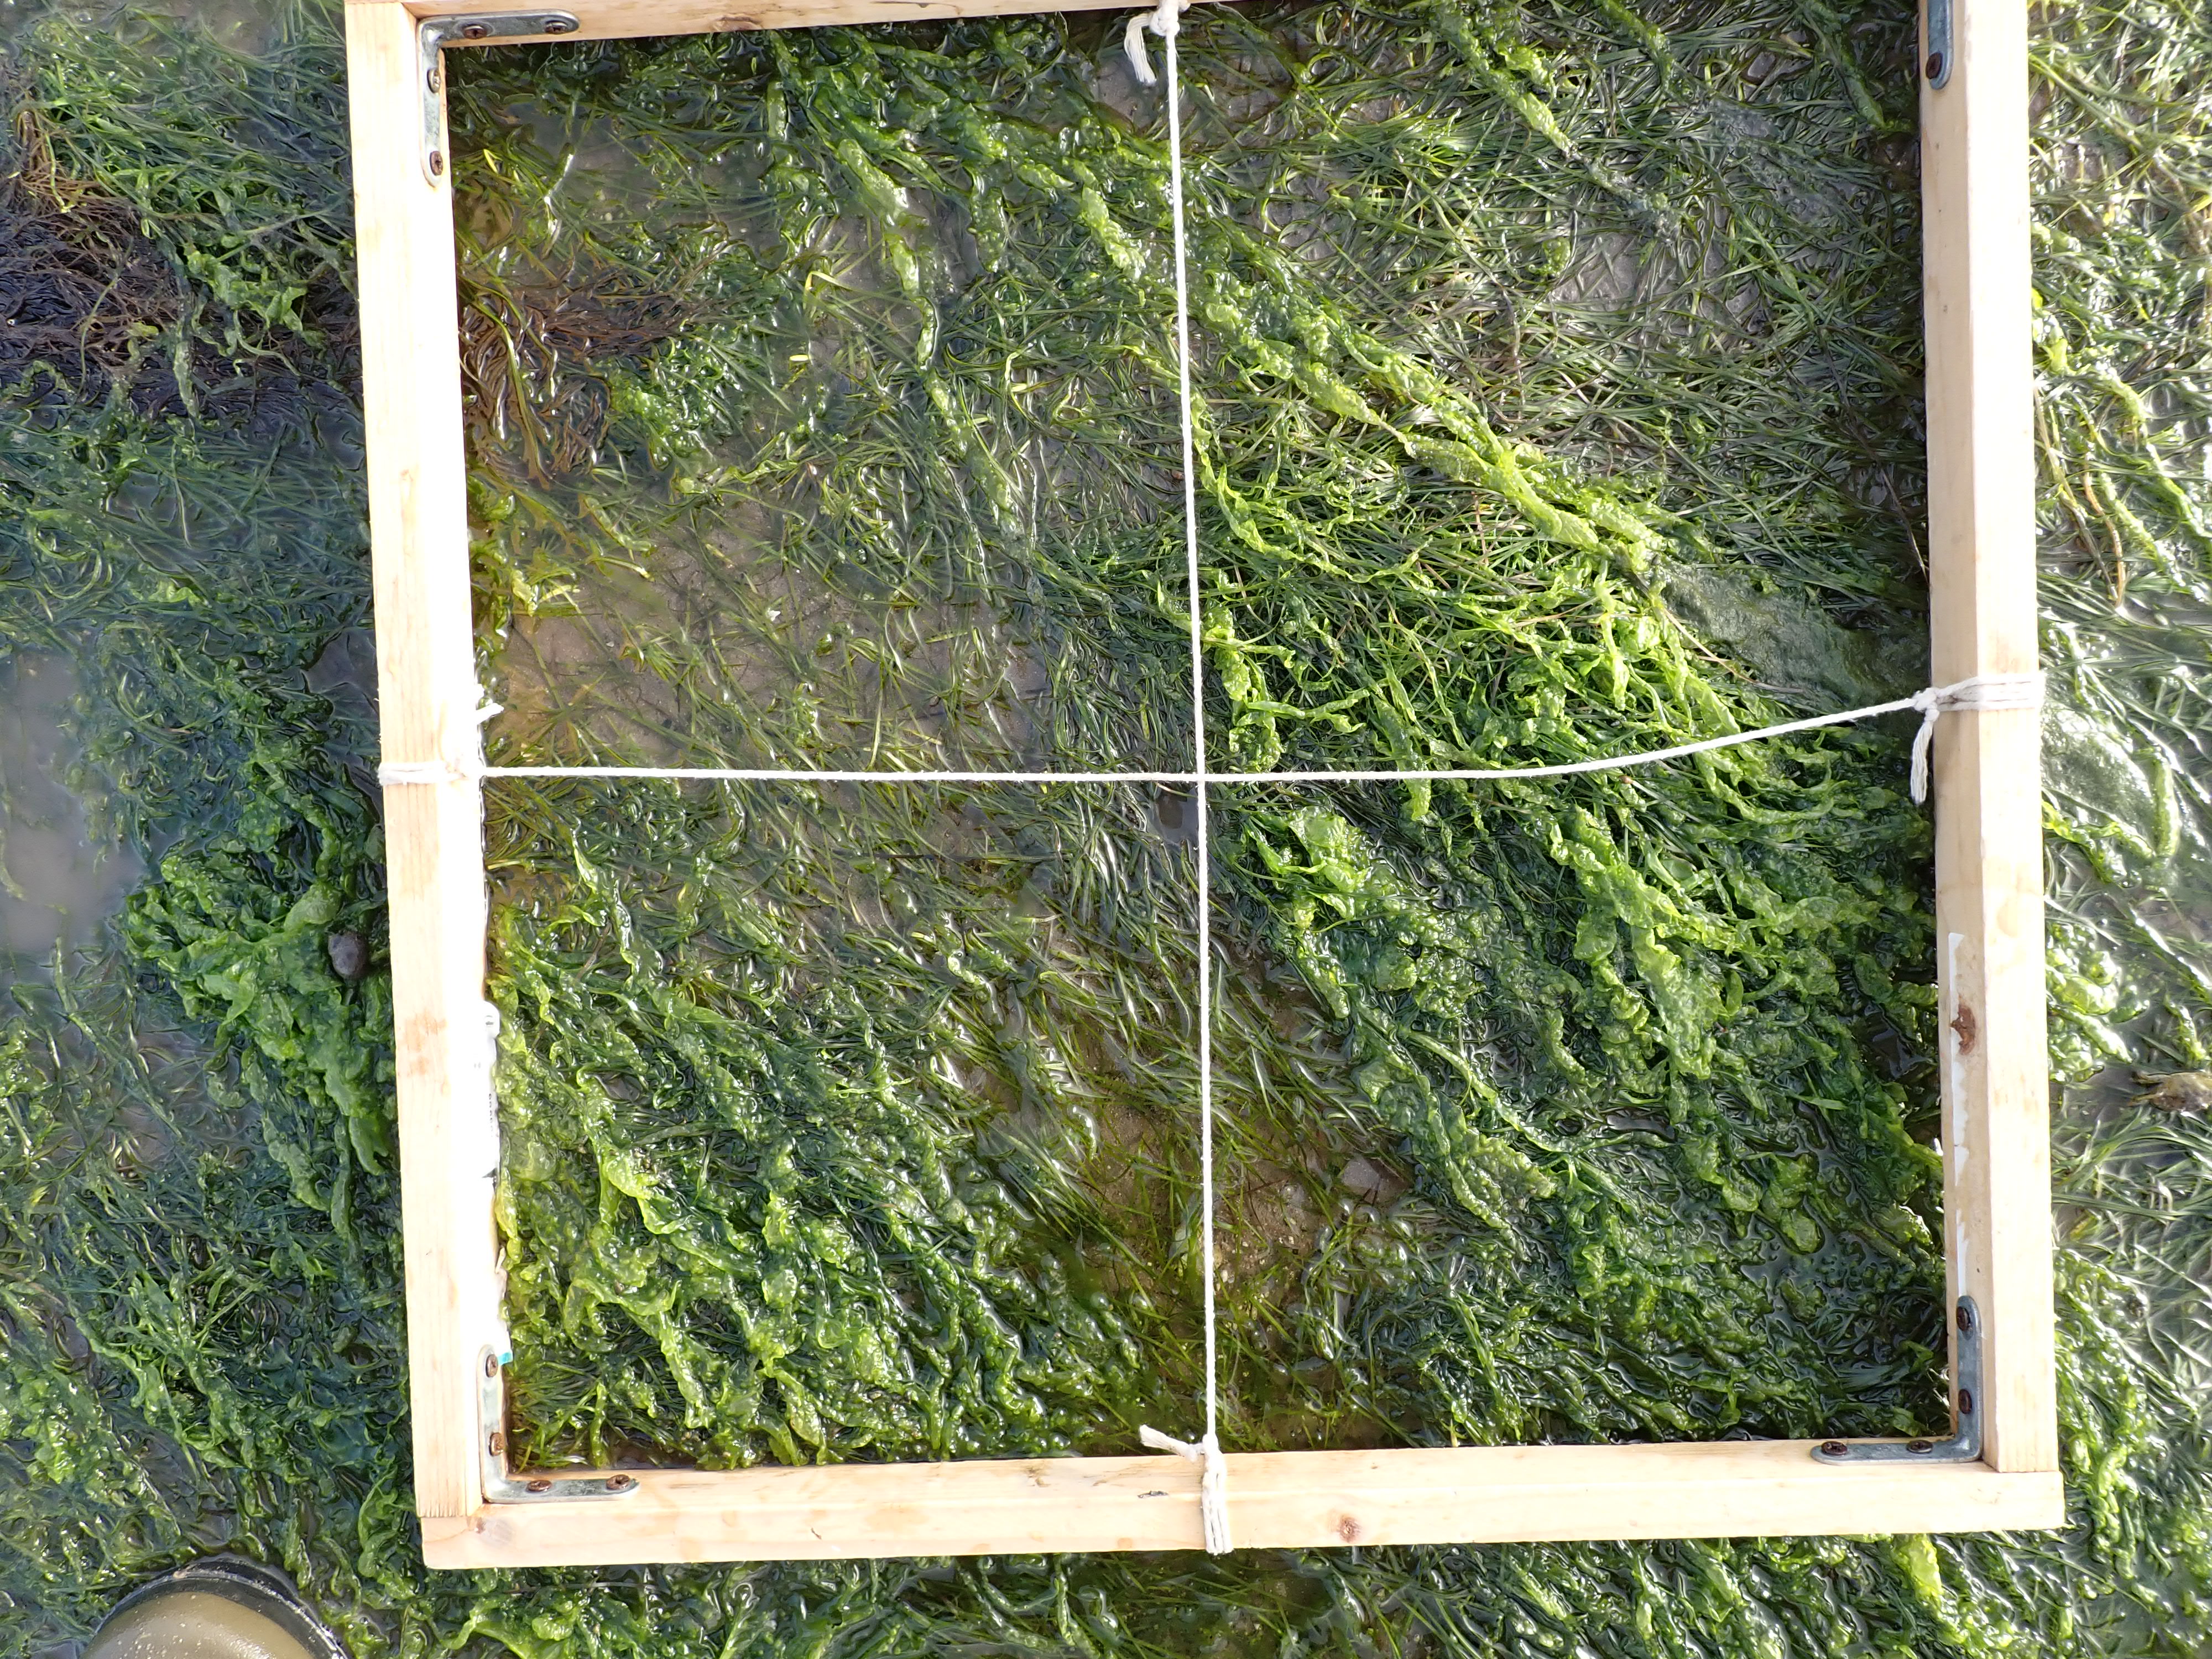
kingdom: Plantae
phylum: Chlorophyta
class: Ulvophyceae
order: Ulvales
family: Ulvaceae
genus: Ulva
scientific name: Ulva
